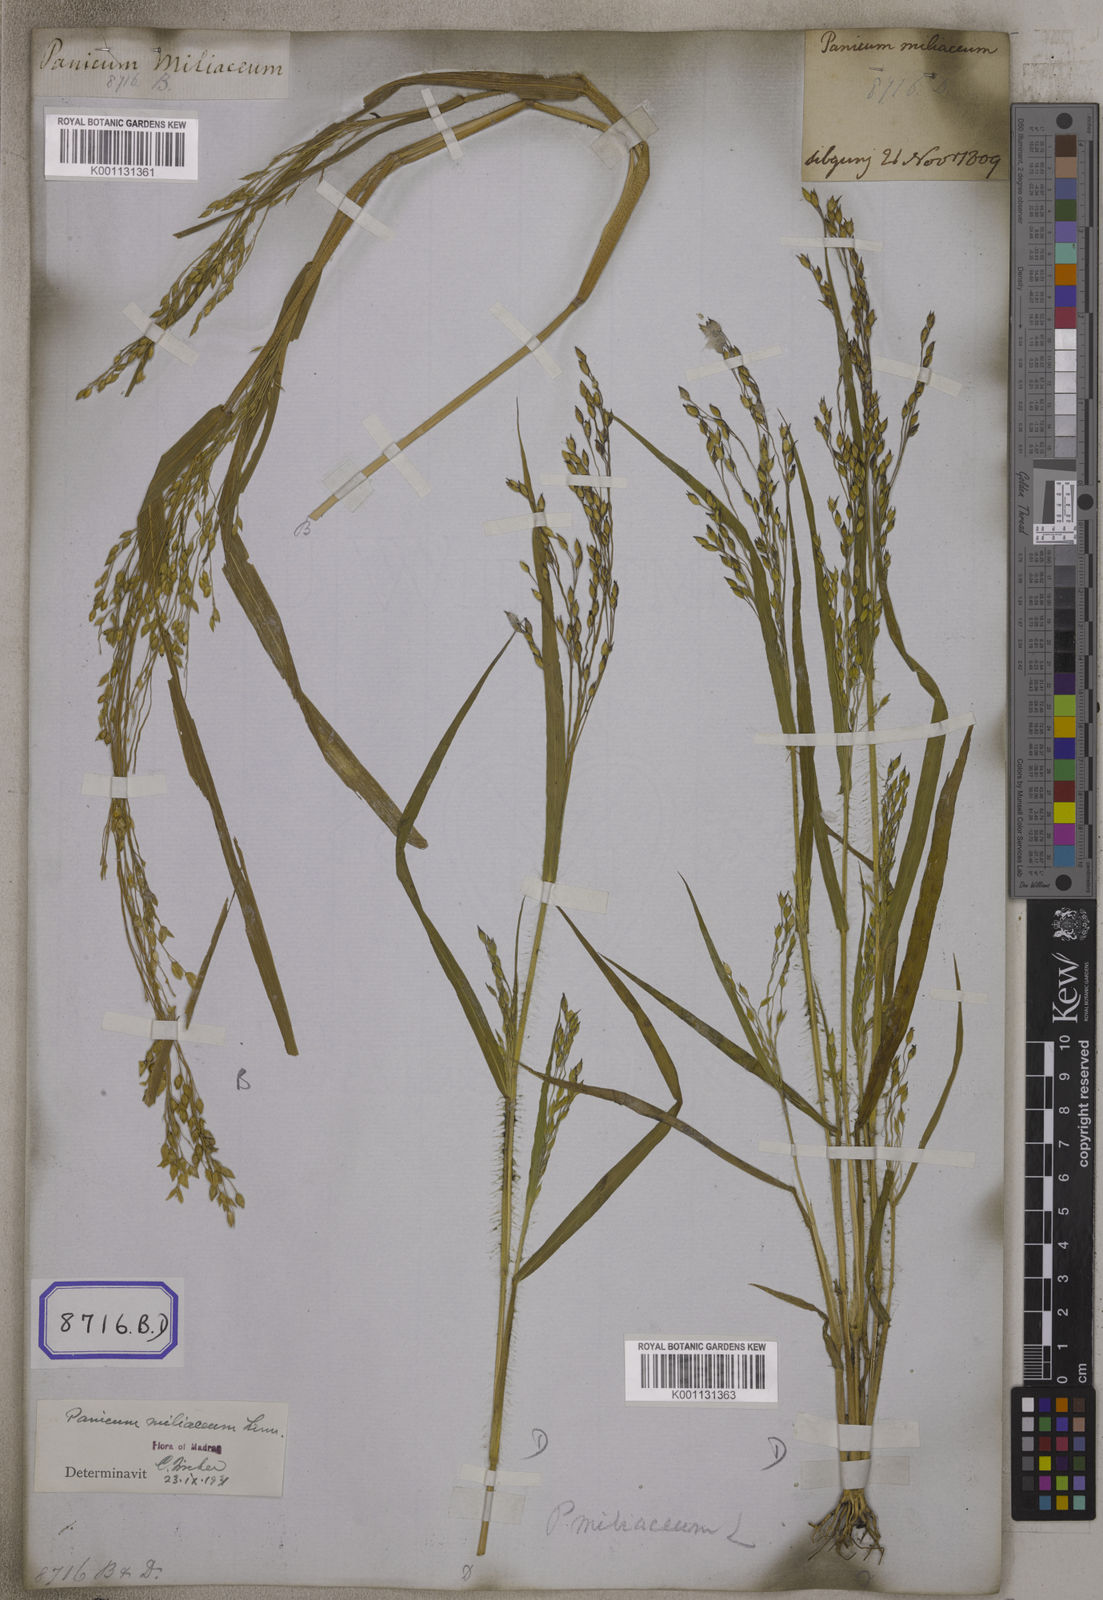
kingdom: Plantae
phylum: Tracheophyta
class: Liliopsida
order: Poales
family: Poaceae
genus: Panicum
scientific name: Panicum miliaceum
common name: Common millet
